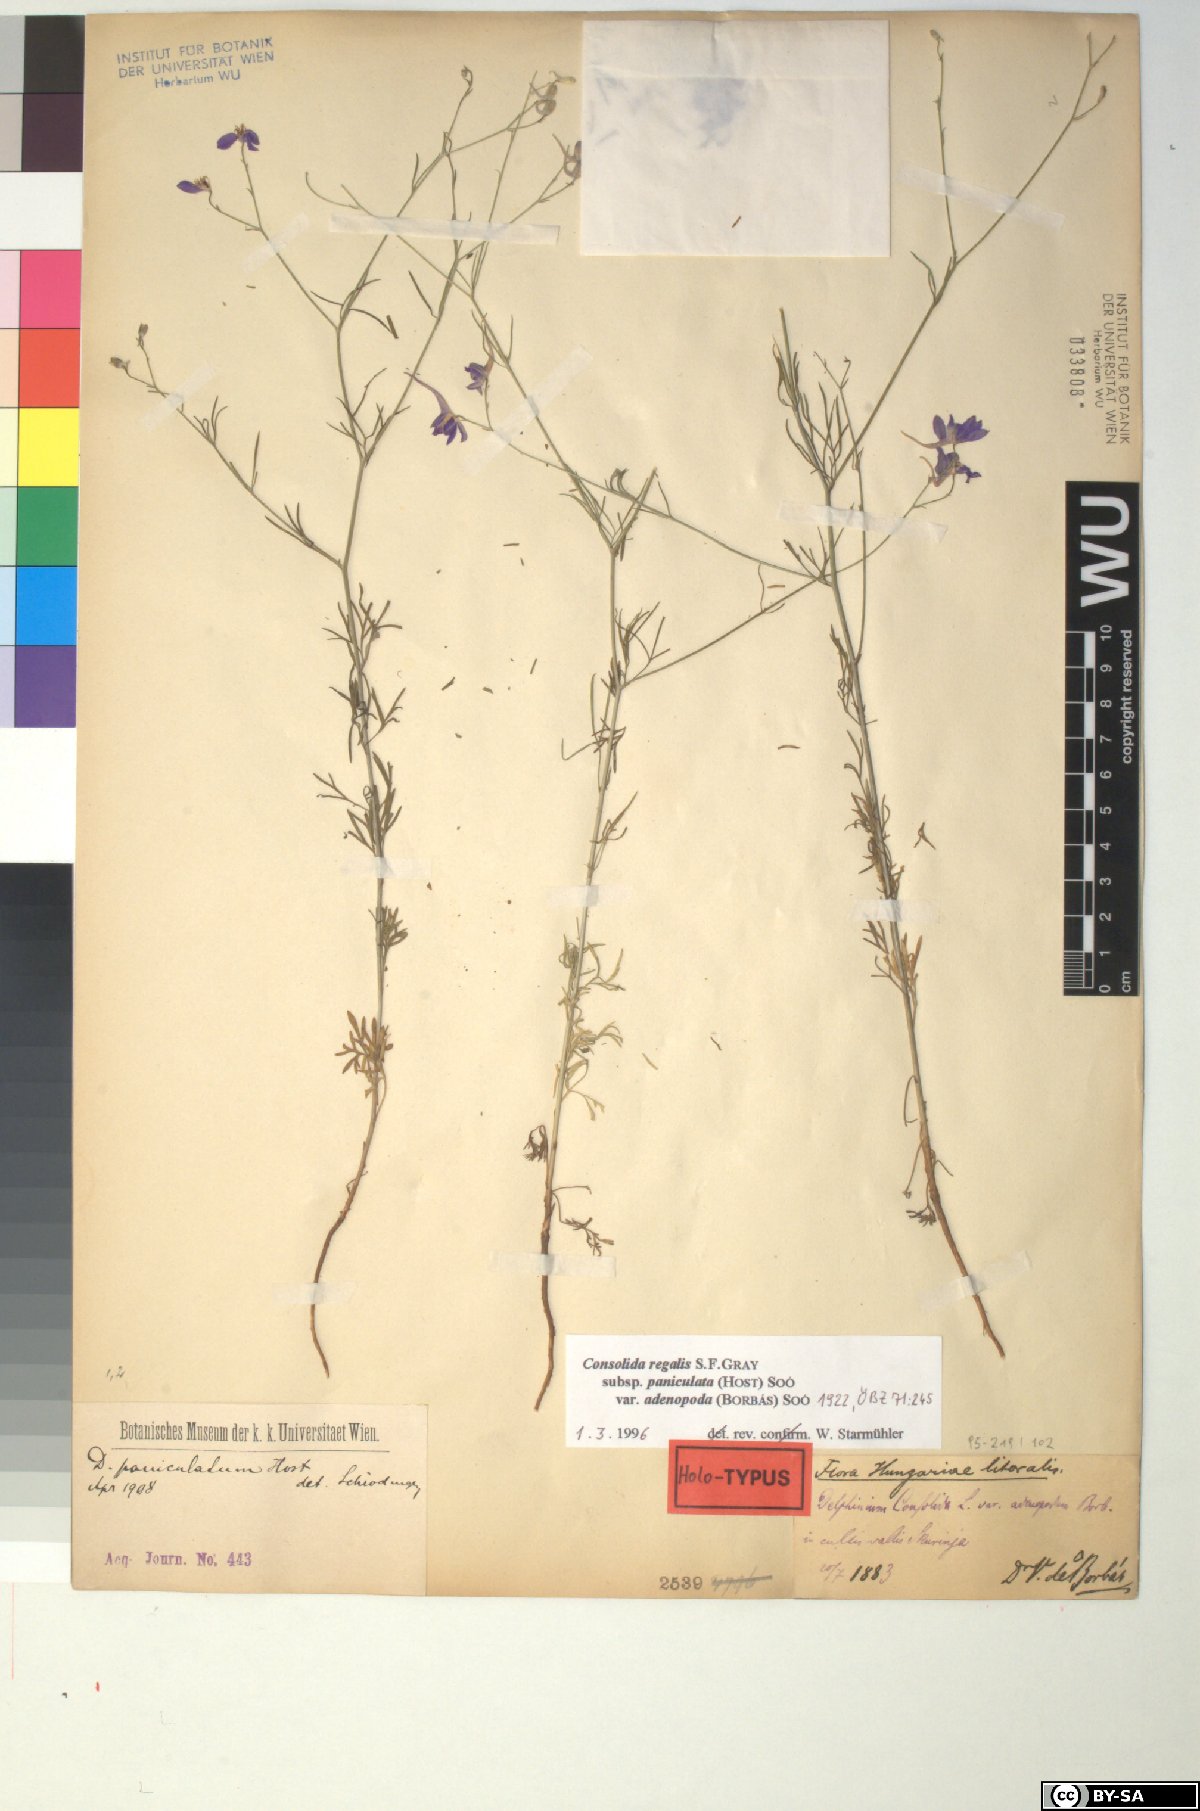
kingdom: Plantae
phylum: Tracheophyta
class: Magnoliopsida
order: Ranunculales
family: Ranunculaceae
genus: Delphinium
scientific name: Delphinium consolida
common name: Branching larkspur
